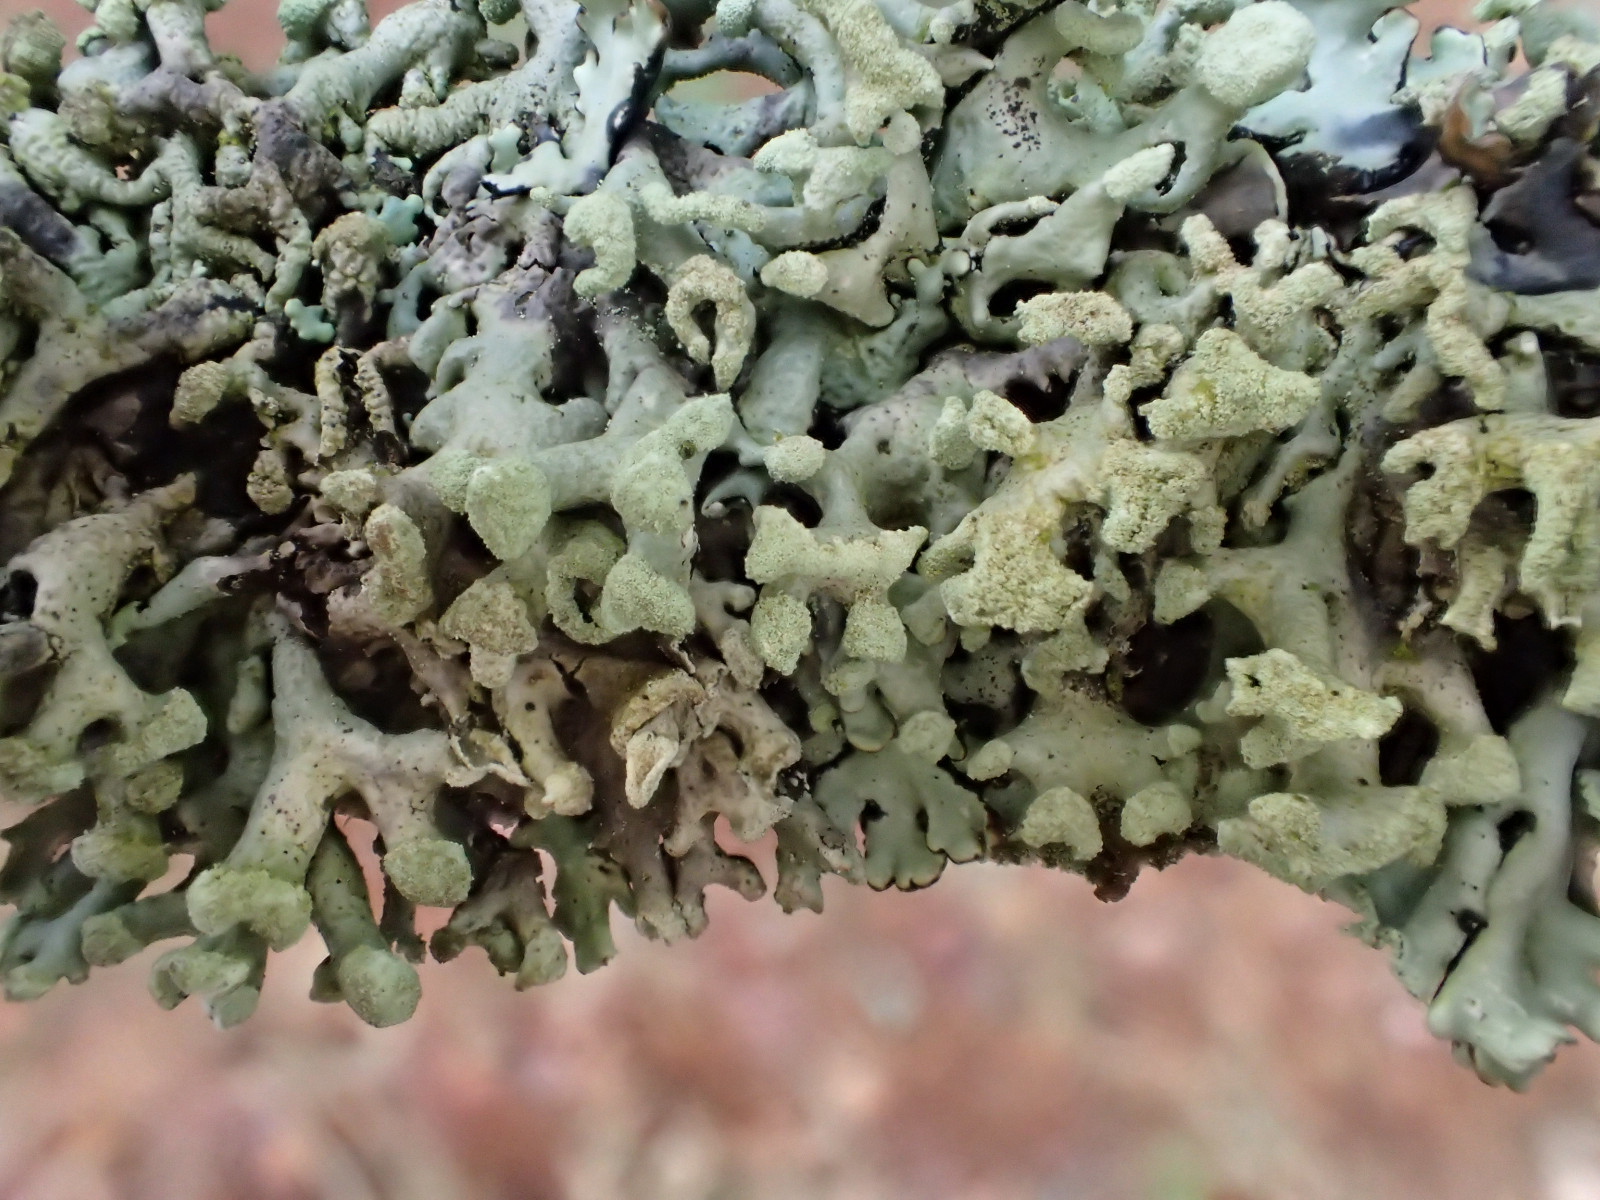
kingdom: Fungi
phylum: Ascomycota
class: Lecanoromycetes
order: Lecanorales
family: Parmeliaceae
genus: Hypogymnia
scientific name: Hypogymnia tubulosa
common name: finger-kvistlav
